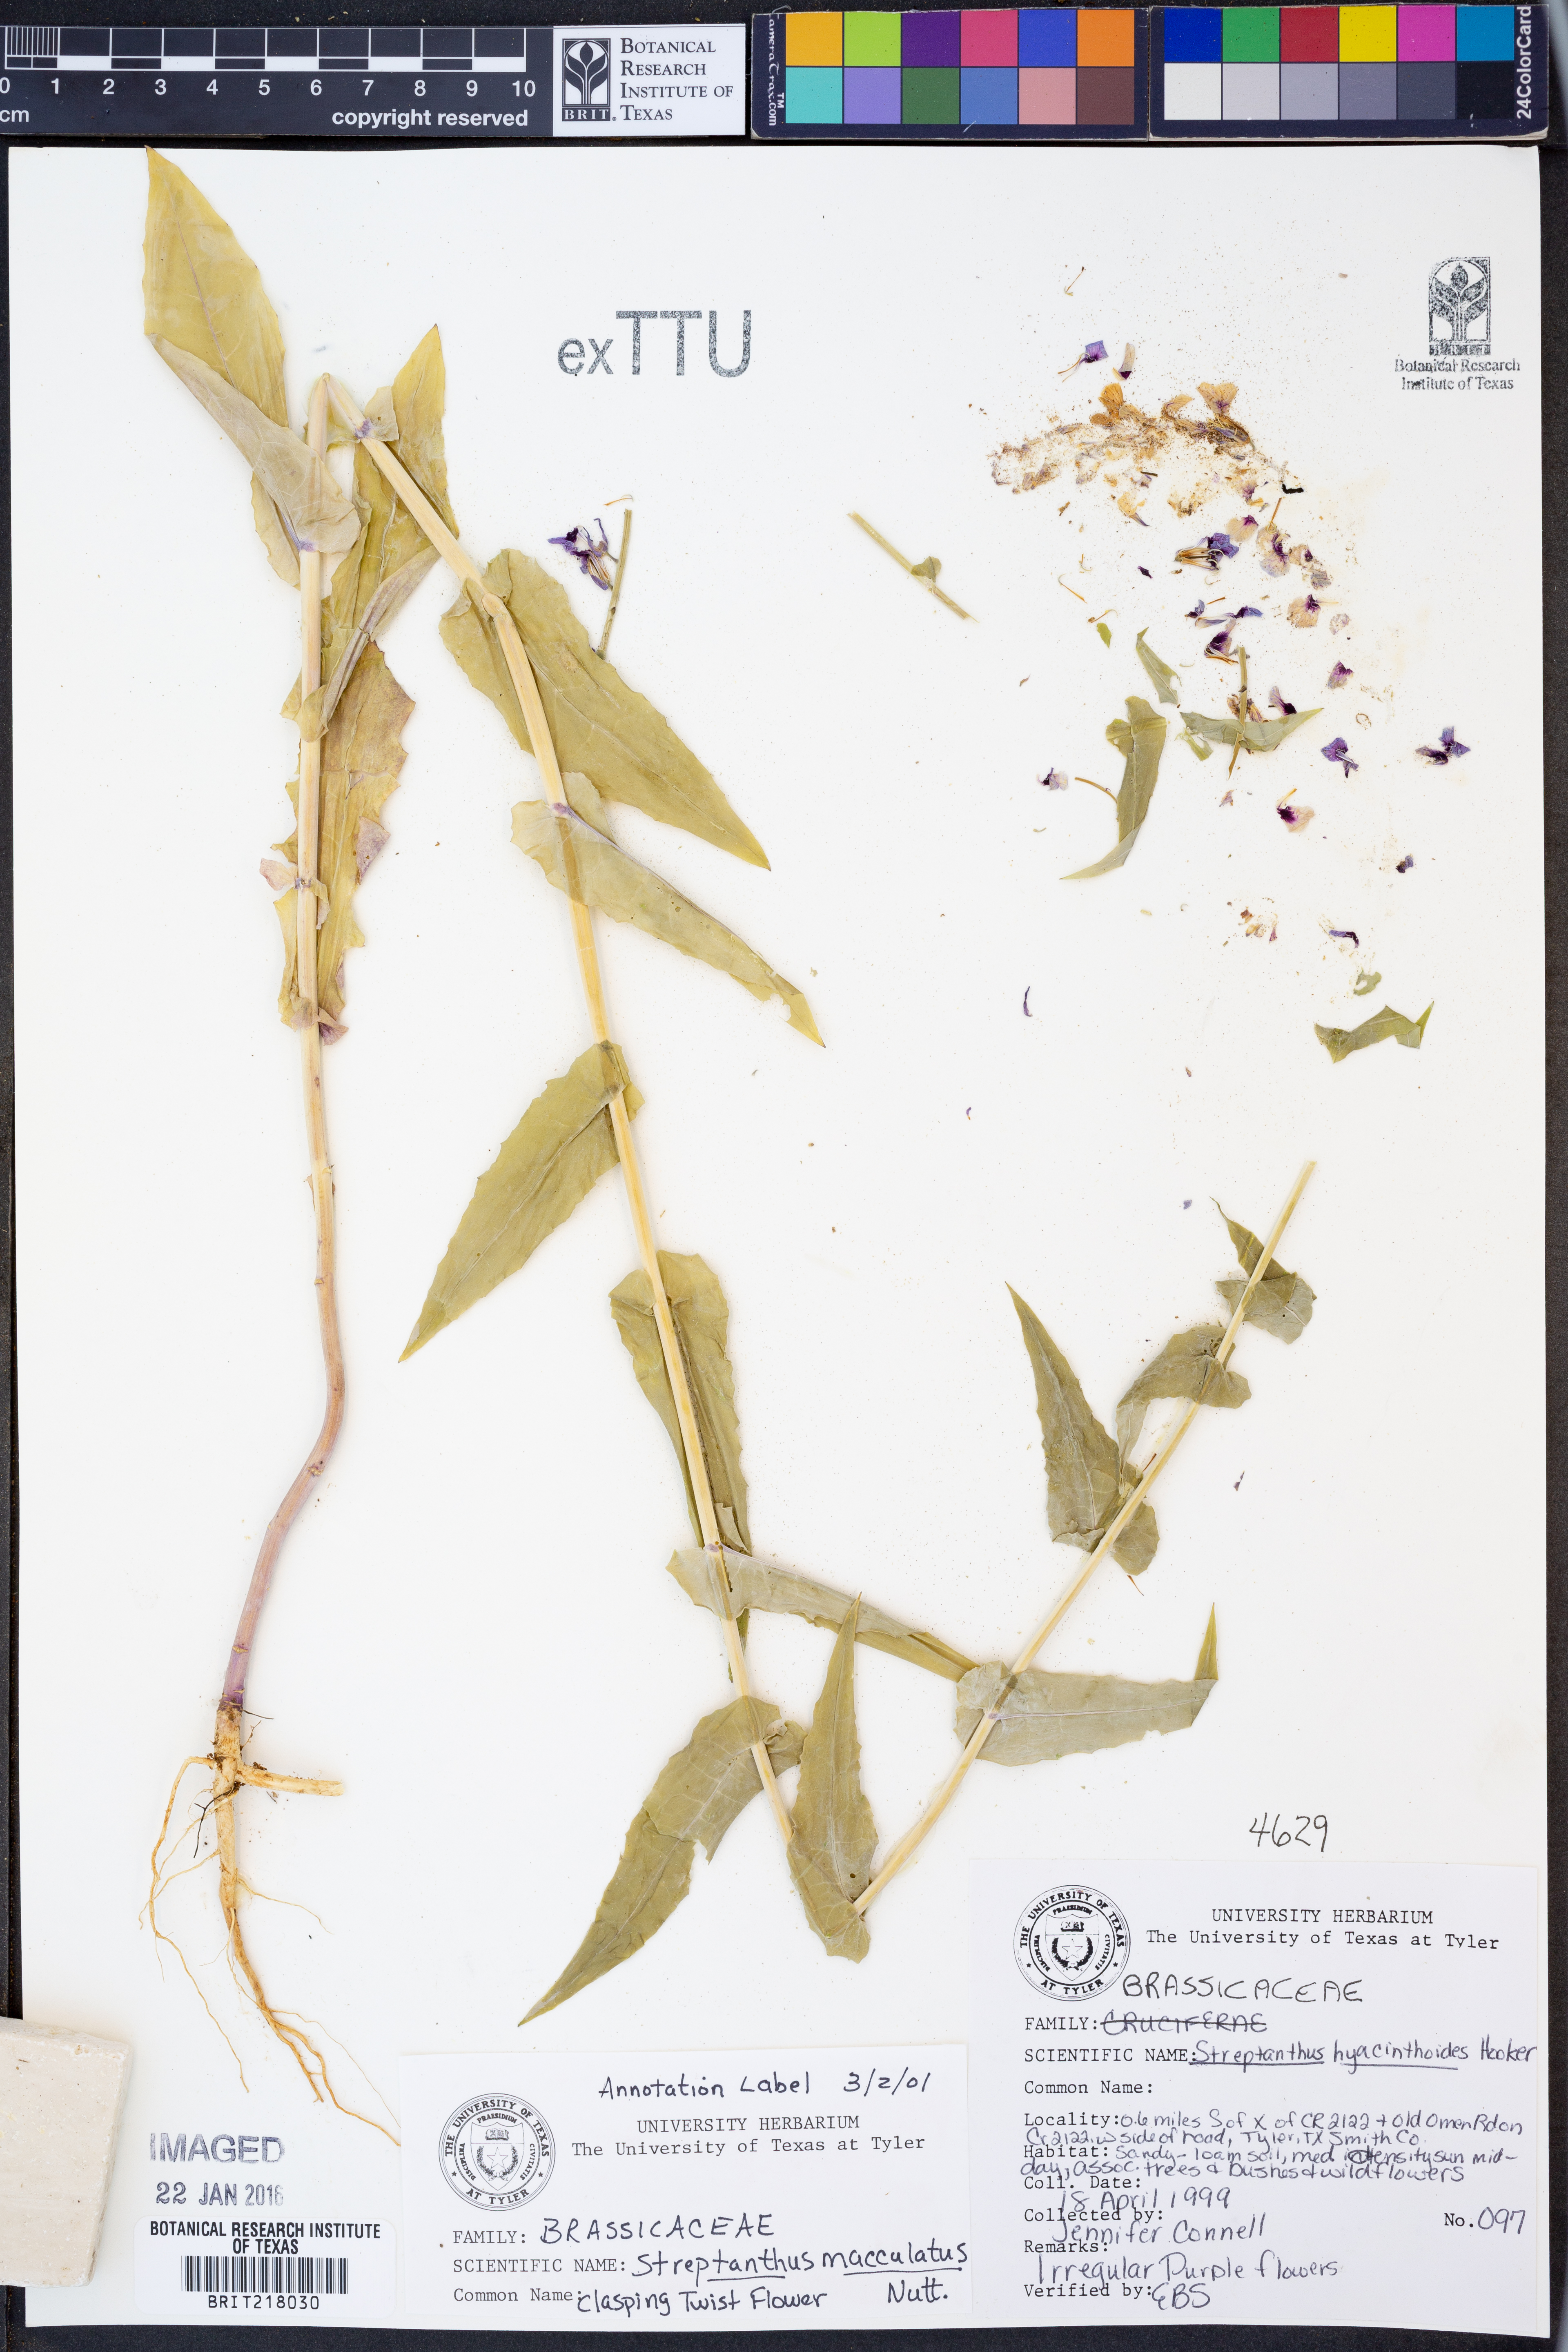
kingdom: Plantae
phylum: Tracheophyta
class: Magnoliopsida
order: Brassicales
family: Brassicaceae
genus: Streptanthus
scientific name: Streptanthus maculatus
